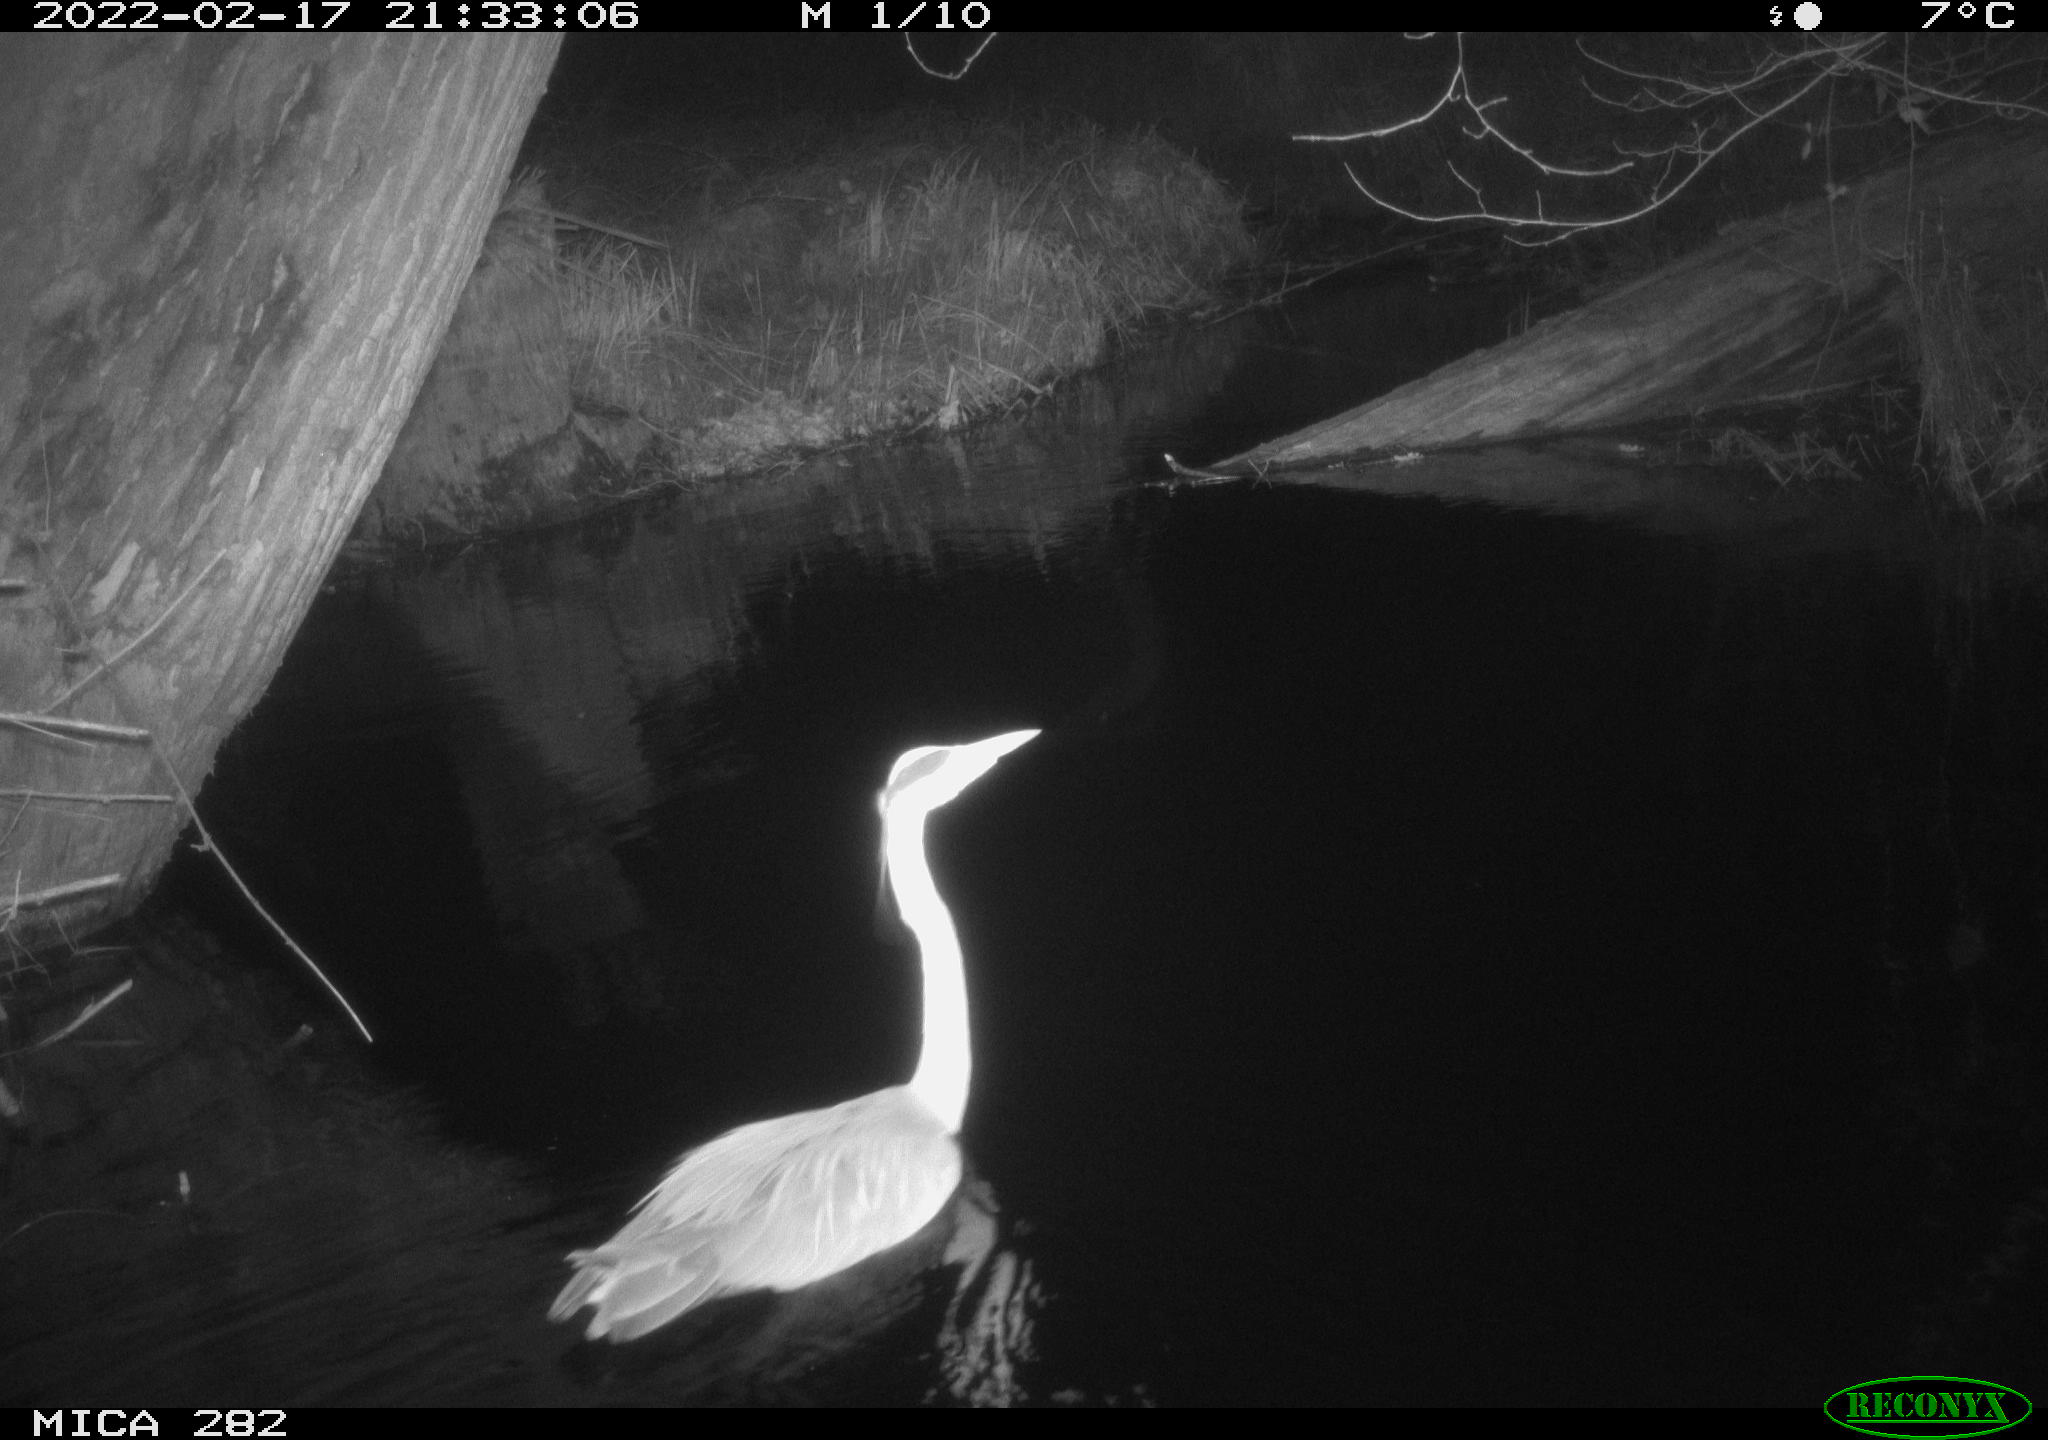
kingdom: Animalia
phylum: Chordata
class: Aves
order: Pelecaniformes
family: Ardeidae
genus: Ardea
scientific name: Ardea
